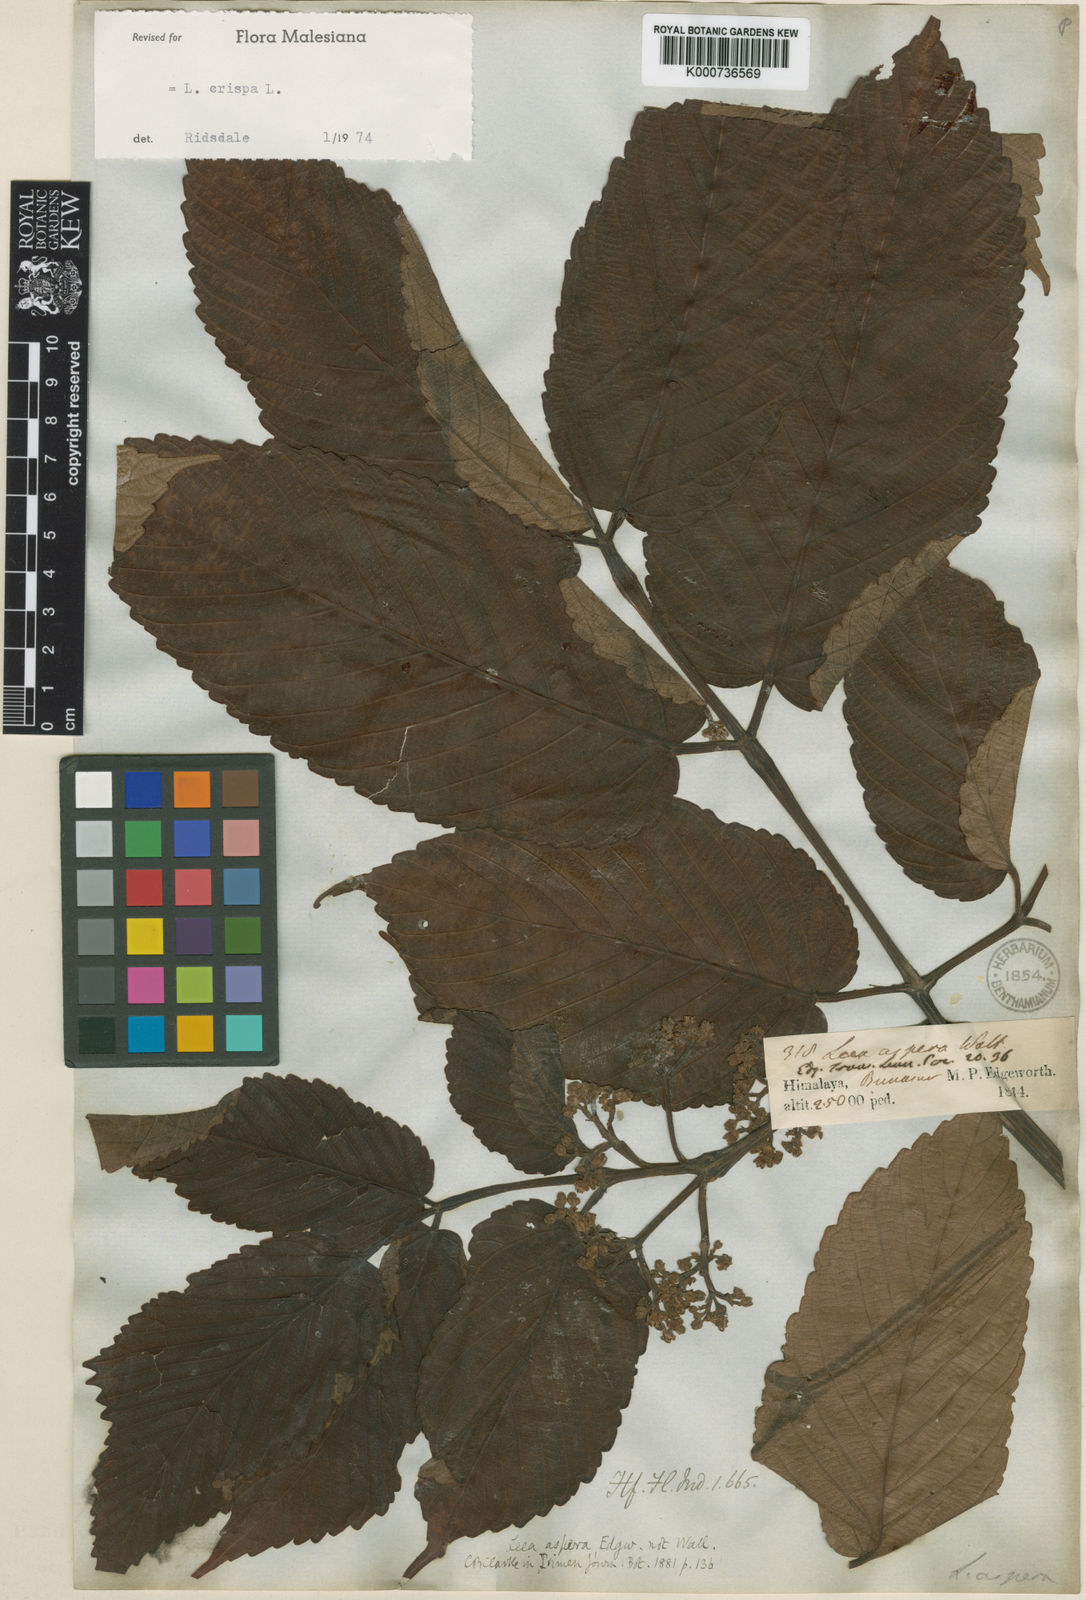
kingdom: Plantae
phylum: Tracheophyta
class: Magnoliopsida
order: Vitales
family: Vitaceae
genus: Leea
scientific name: Leea asiatica
